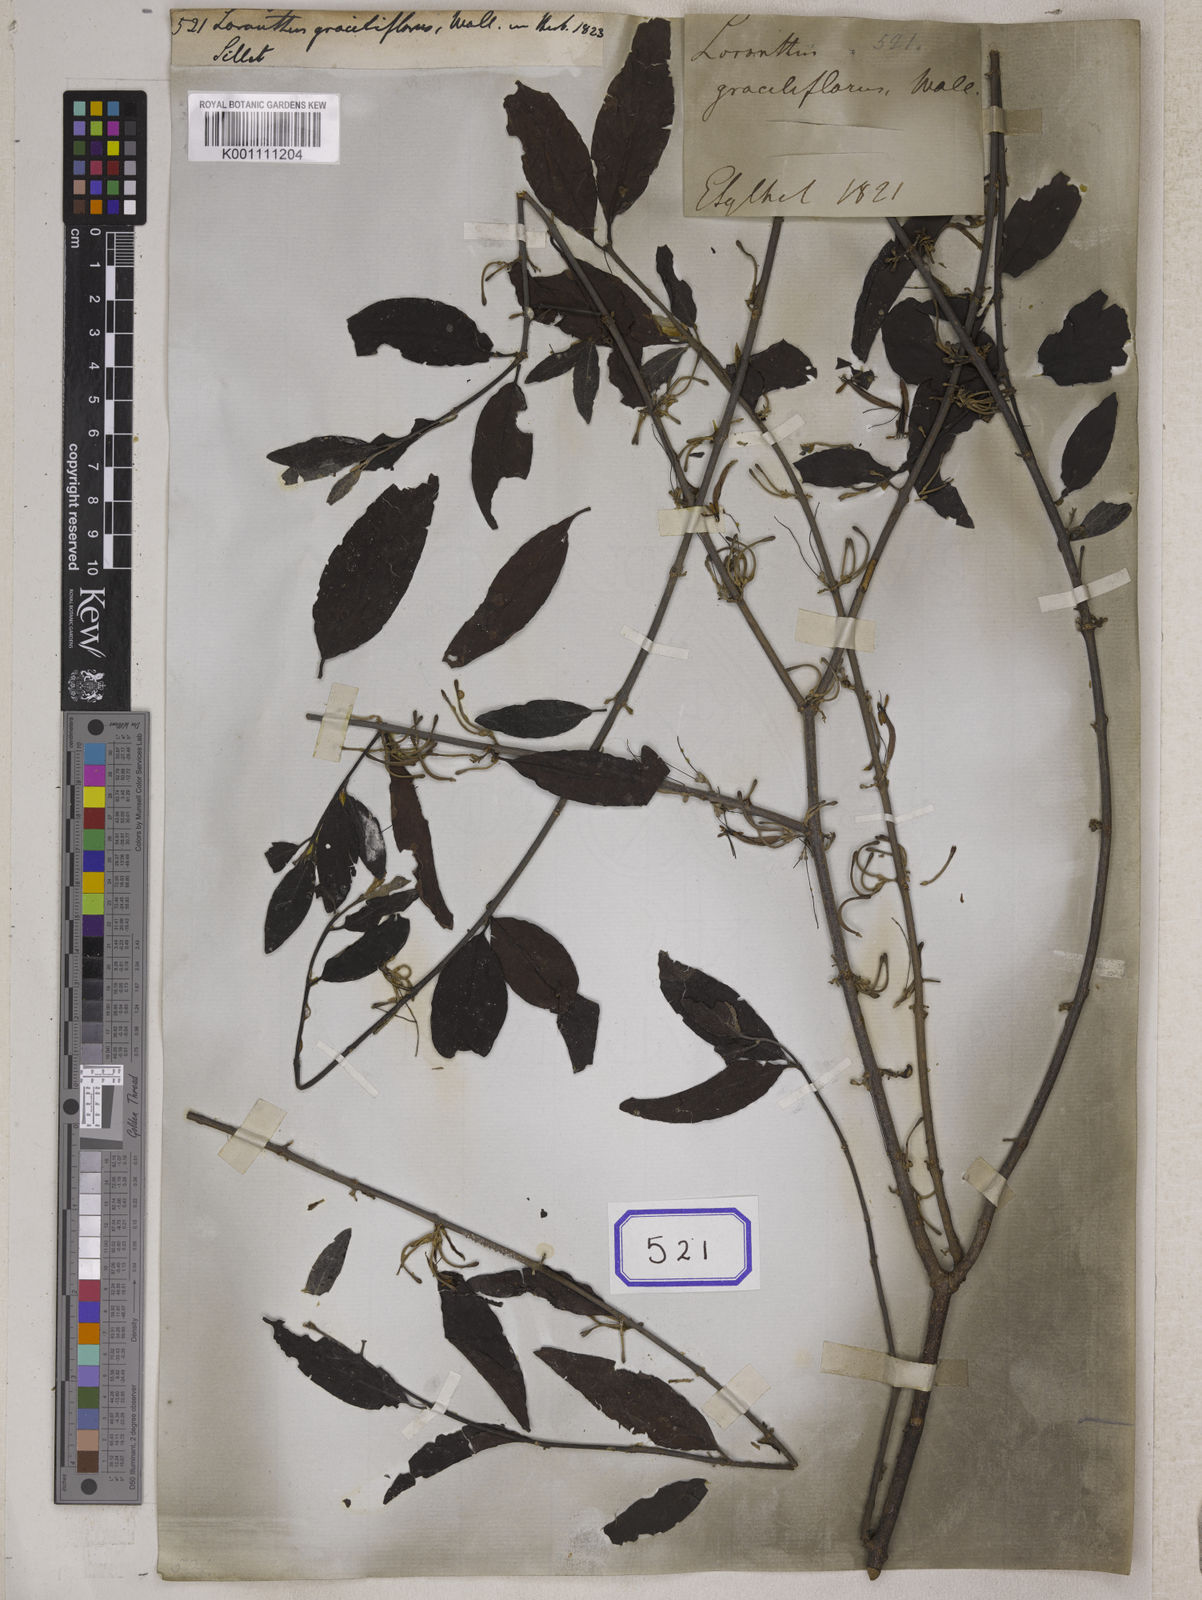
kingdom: Plantae
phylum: Tracheophyta
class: Magnoliopsida
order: Santalales
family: Loranthaceae
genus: Loranthus
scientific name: Loranthus
